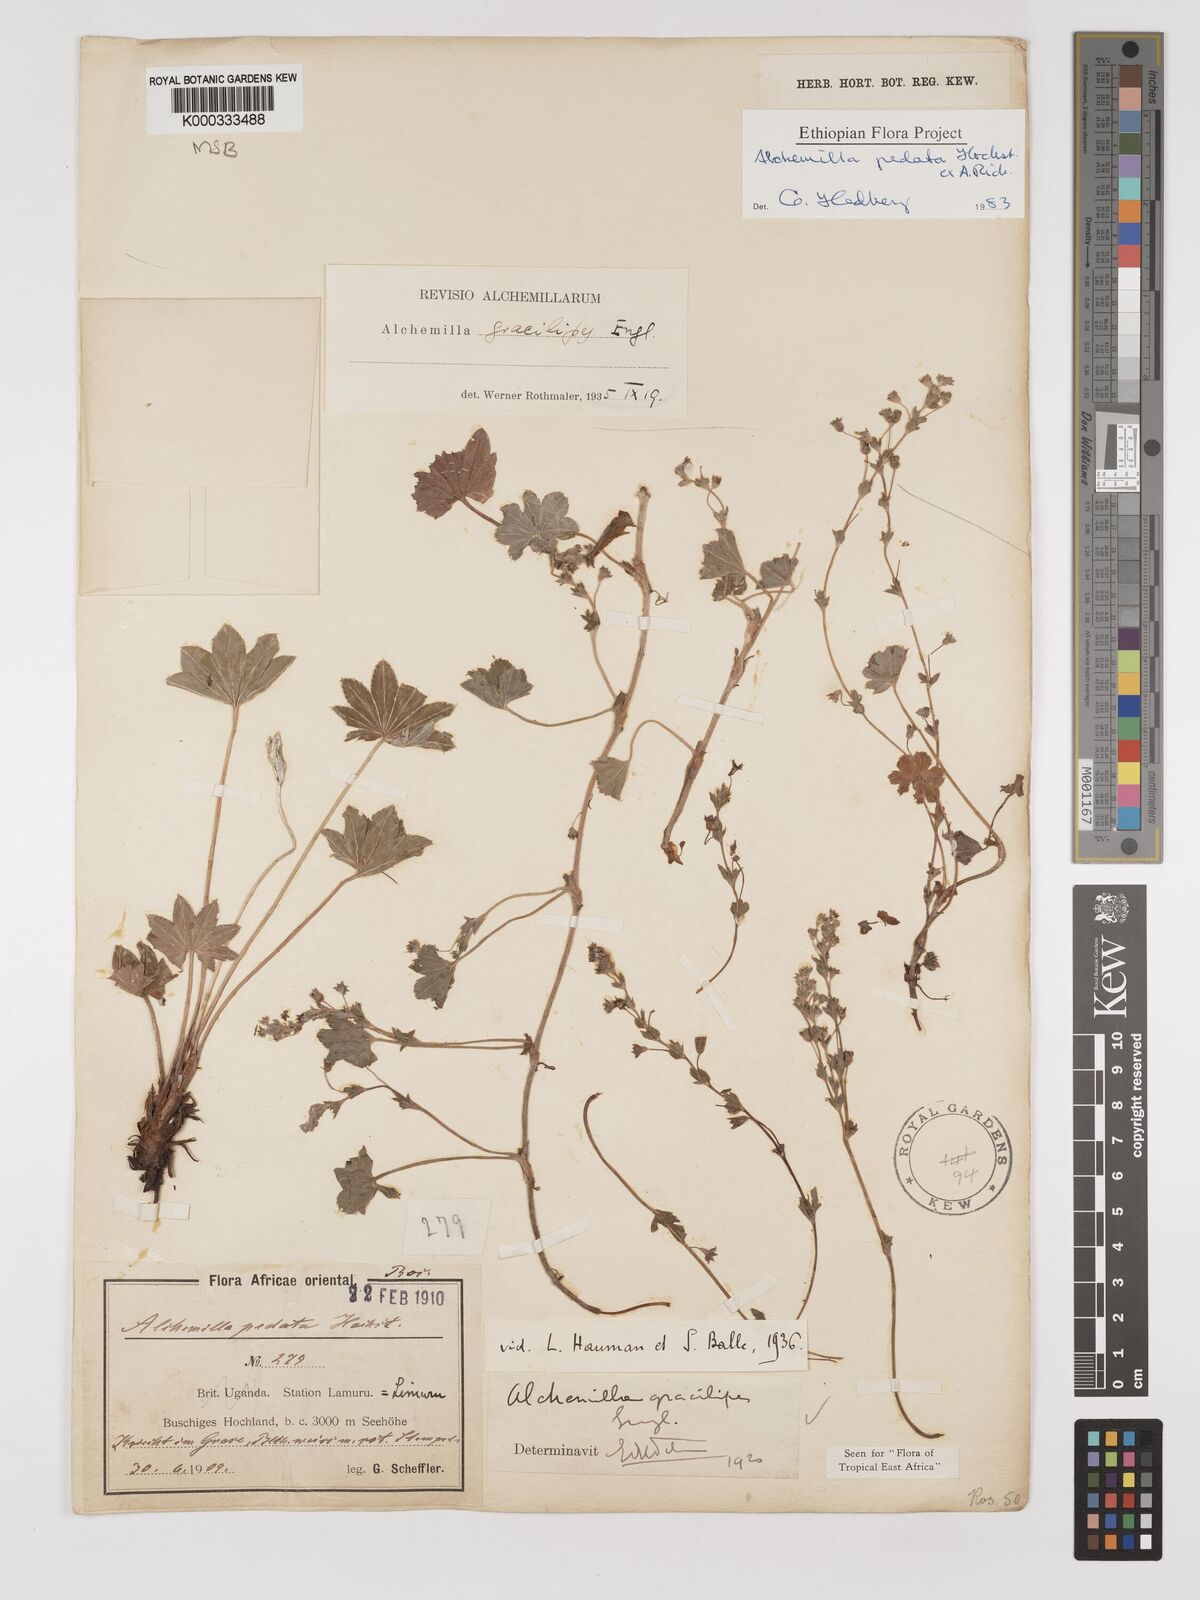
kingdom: Plantae
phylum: Tracheophyta
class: Magnoliopsida
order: Rosales
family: Rosaceae
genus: Alchemilla
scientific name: Alchemilla pedata
